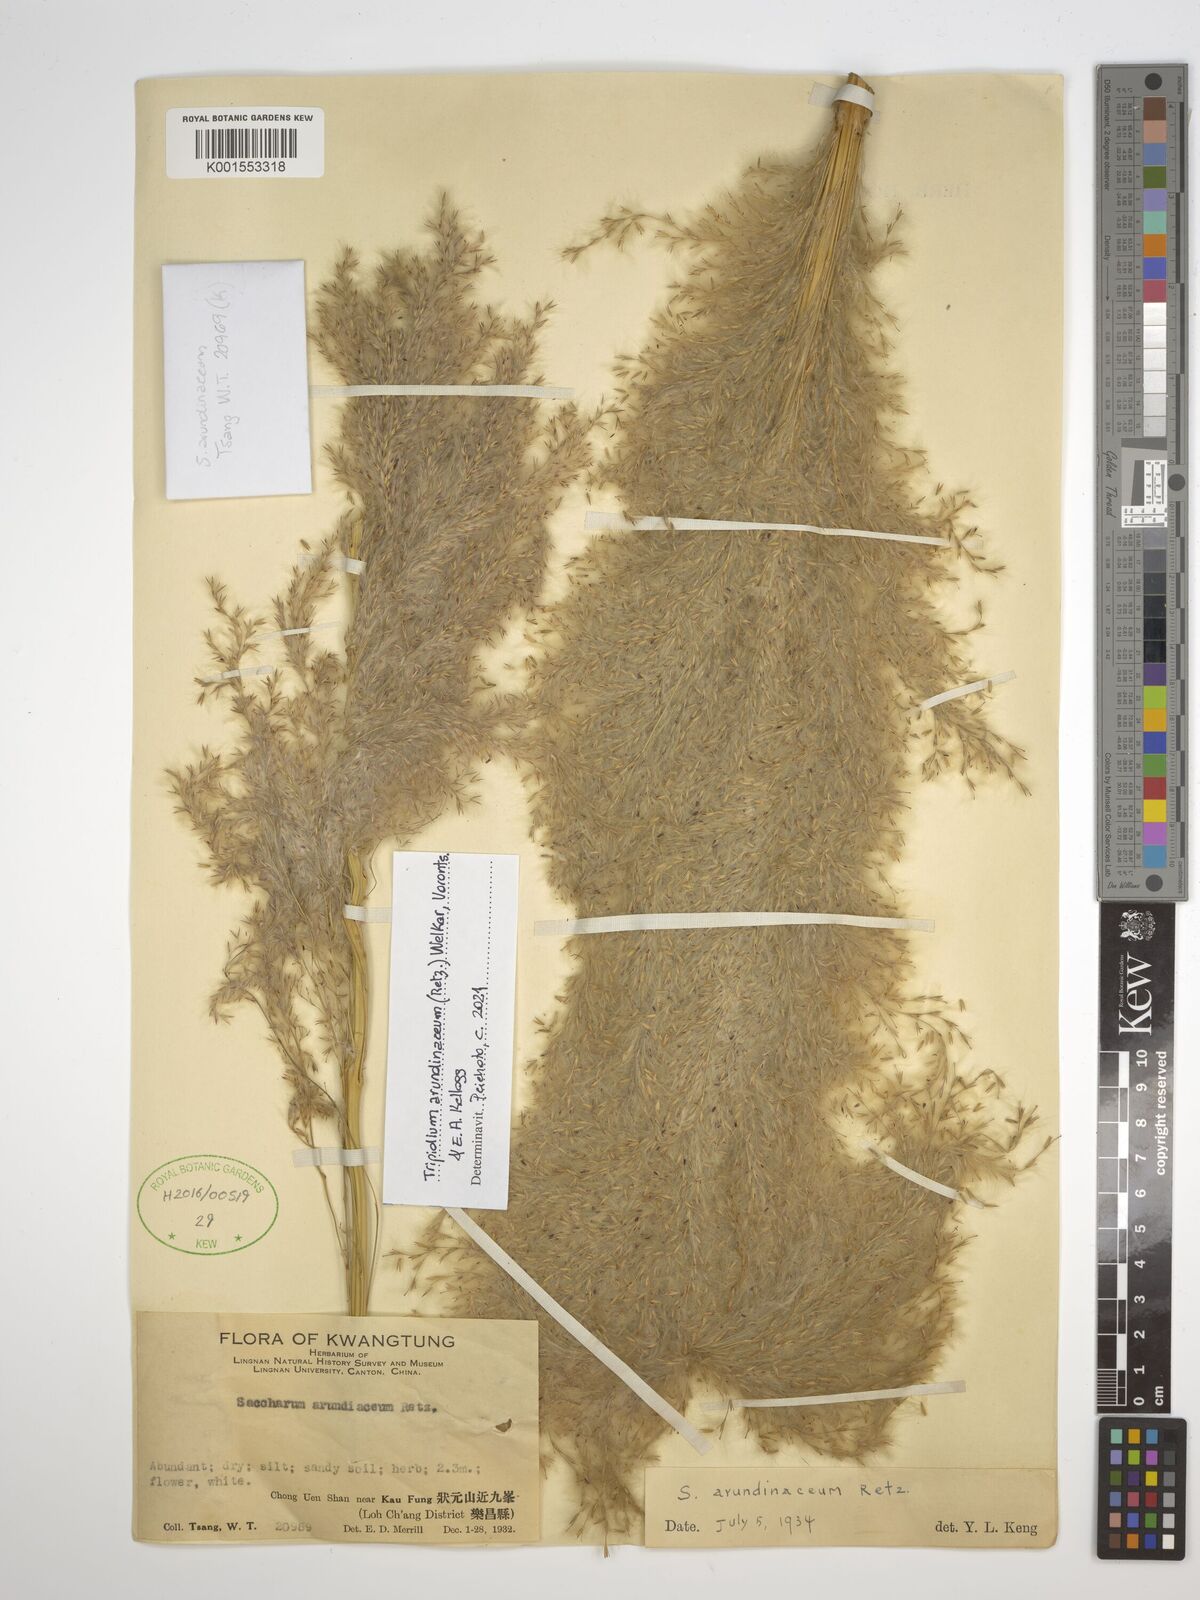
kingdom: Plantae
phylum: Tracheophyta
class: Liliopsida
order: Poales
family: Poaceae
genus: Saccharum
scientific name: Saccharum robustum
